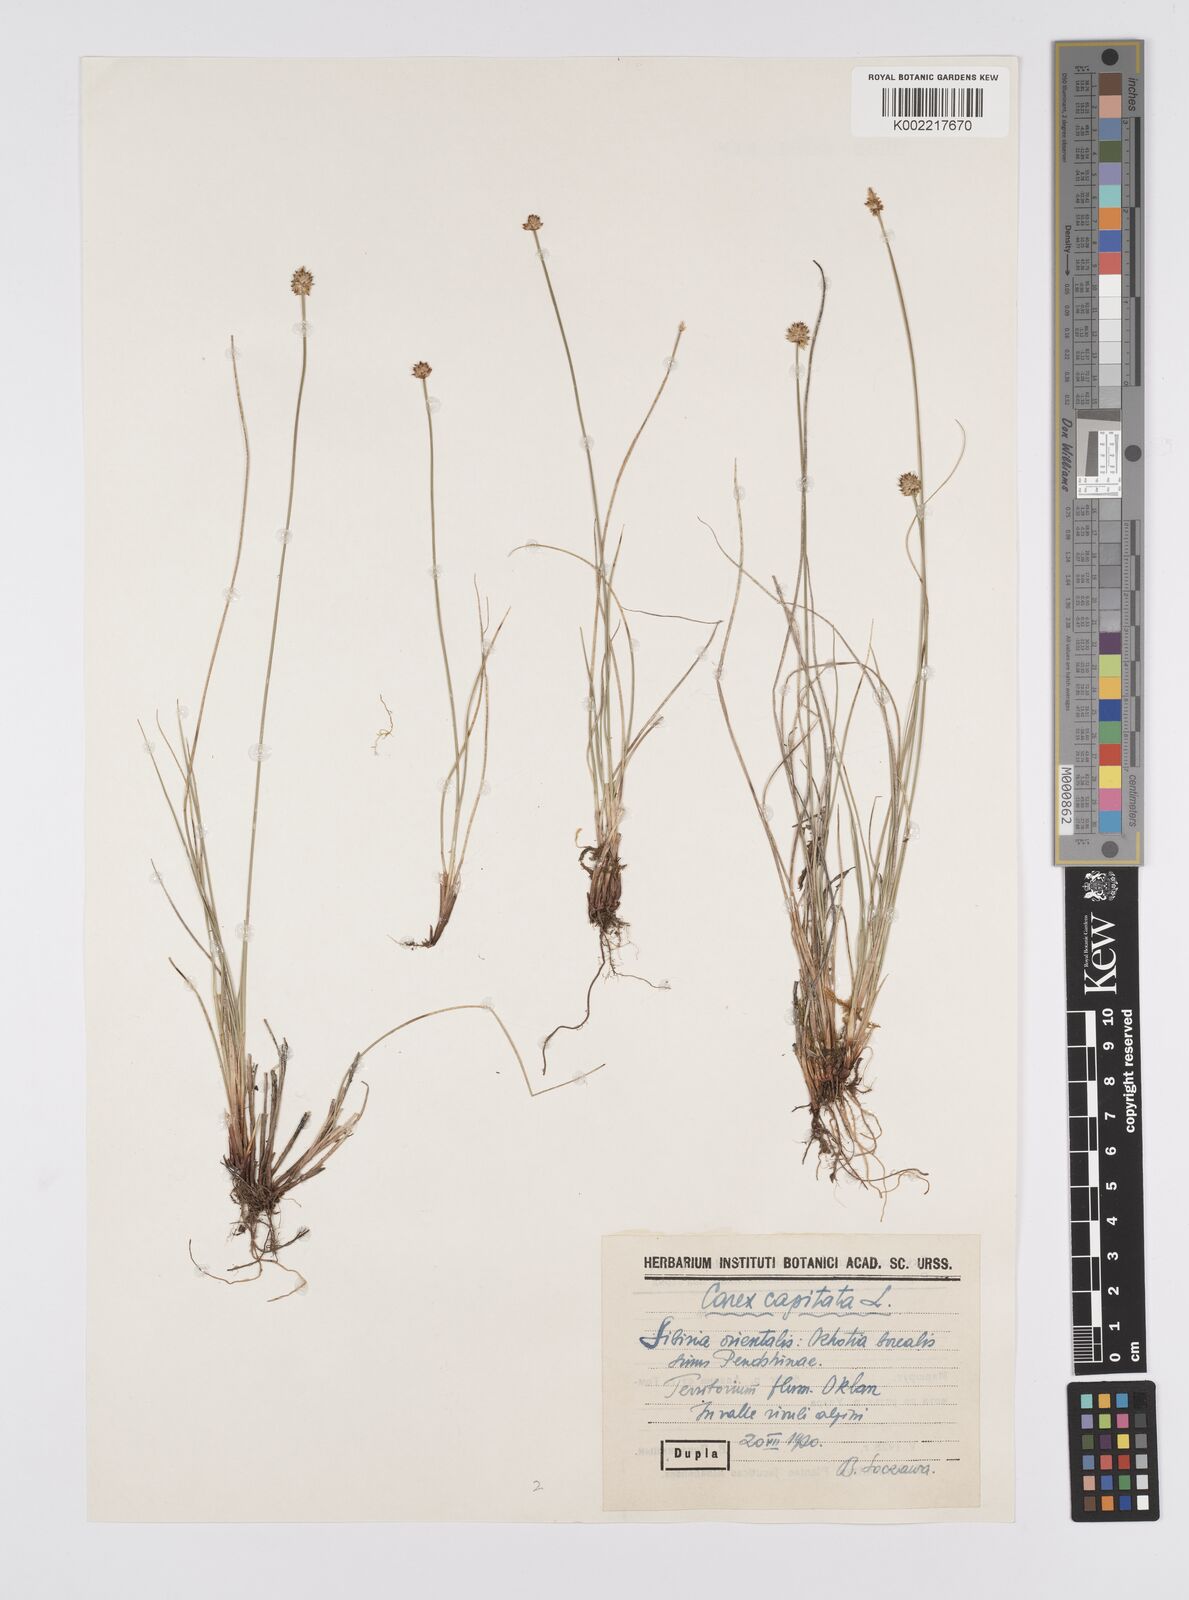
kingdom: Plantae
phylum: Tracheophyta
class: Liliopsida
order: Poales
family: Cyperaceae
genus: Carex
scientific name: Carex capitata
